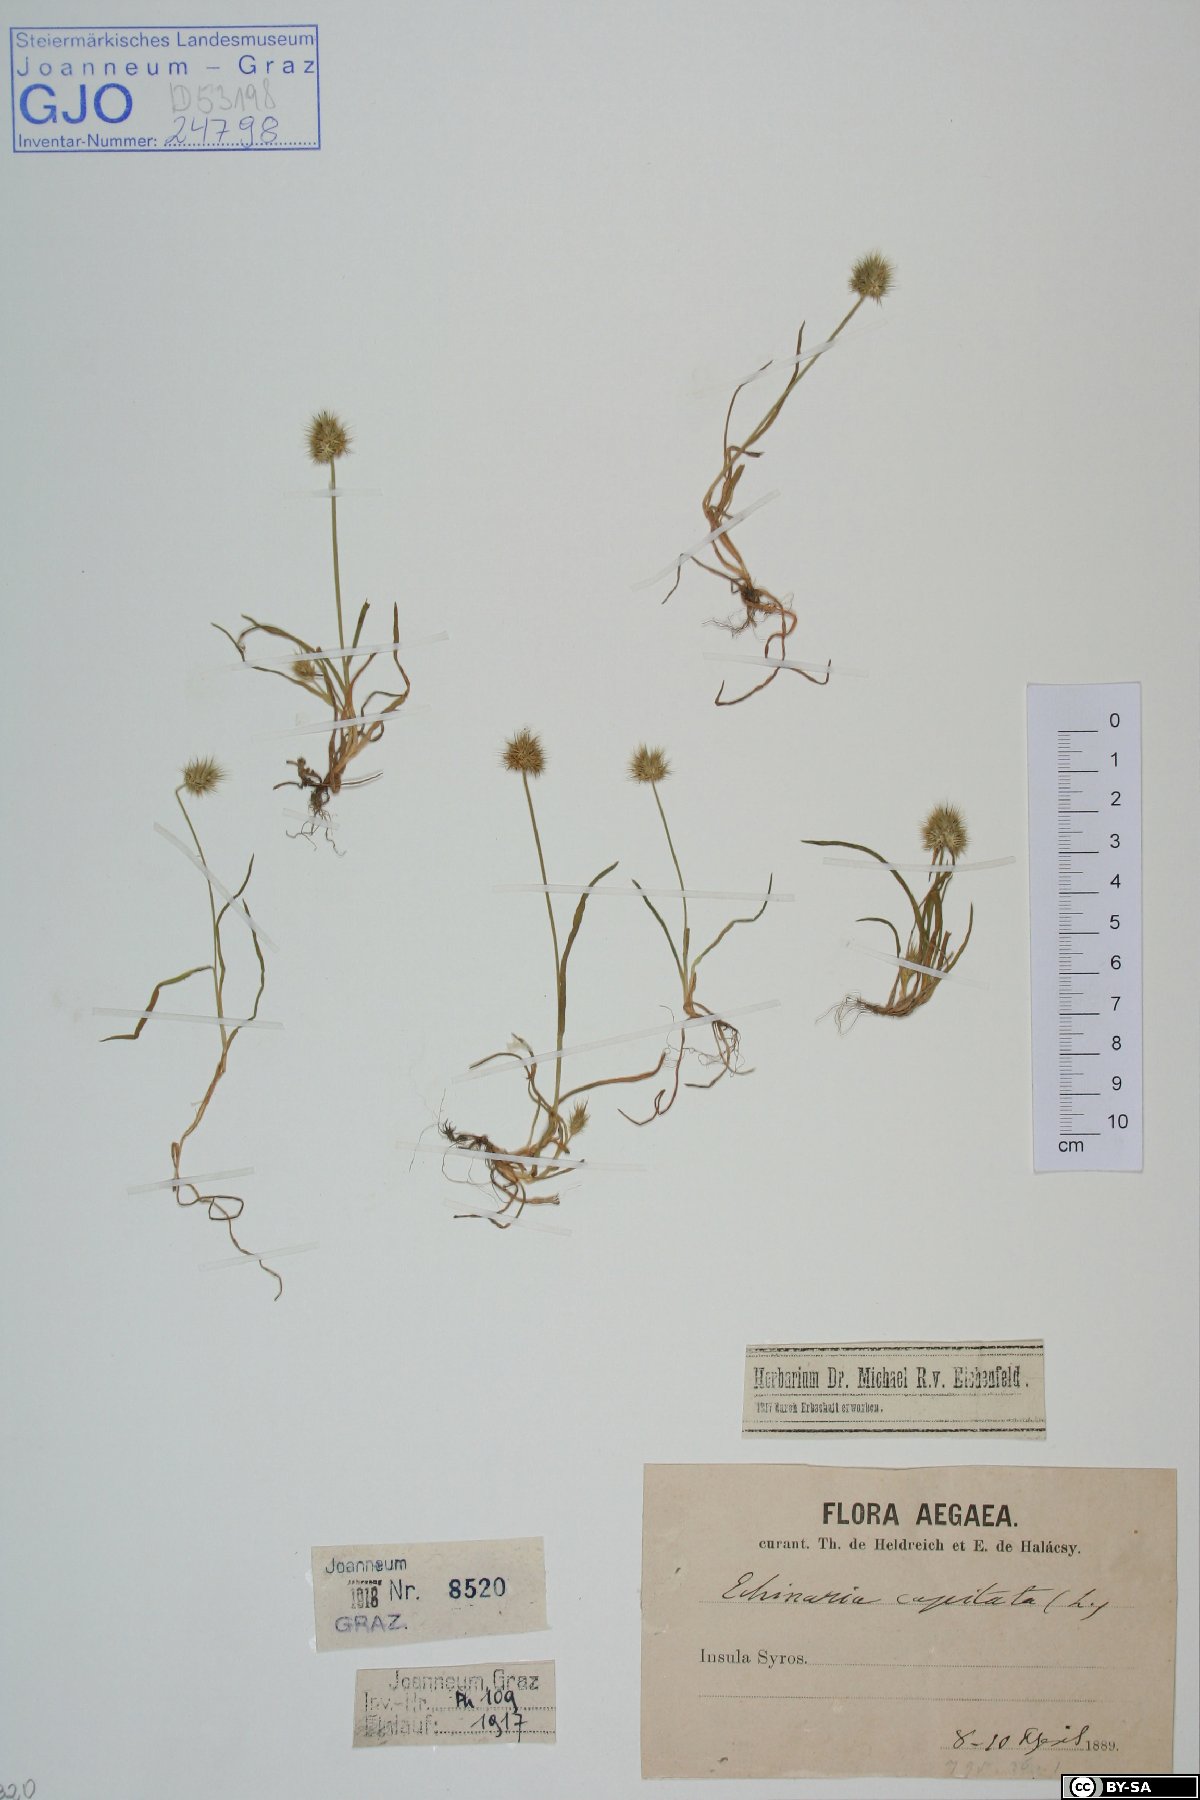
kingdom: Plantae
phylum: Tracheophyta
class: Liliopsida
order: Poales
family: Poaceae
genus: Echinaria
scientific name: Echinaria capitata
